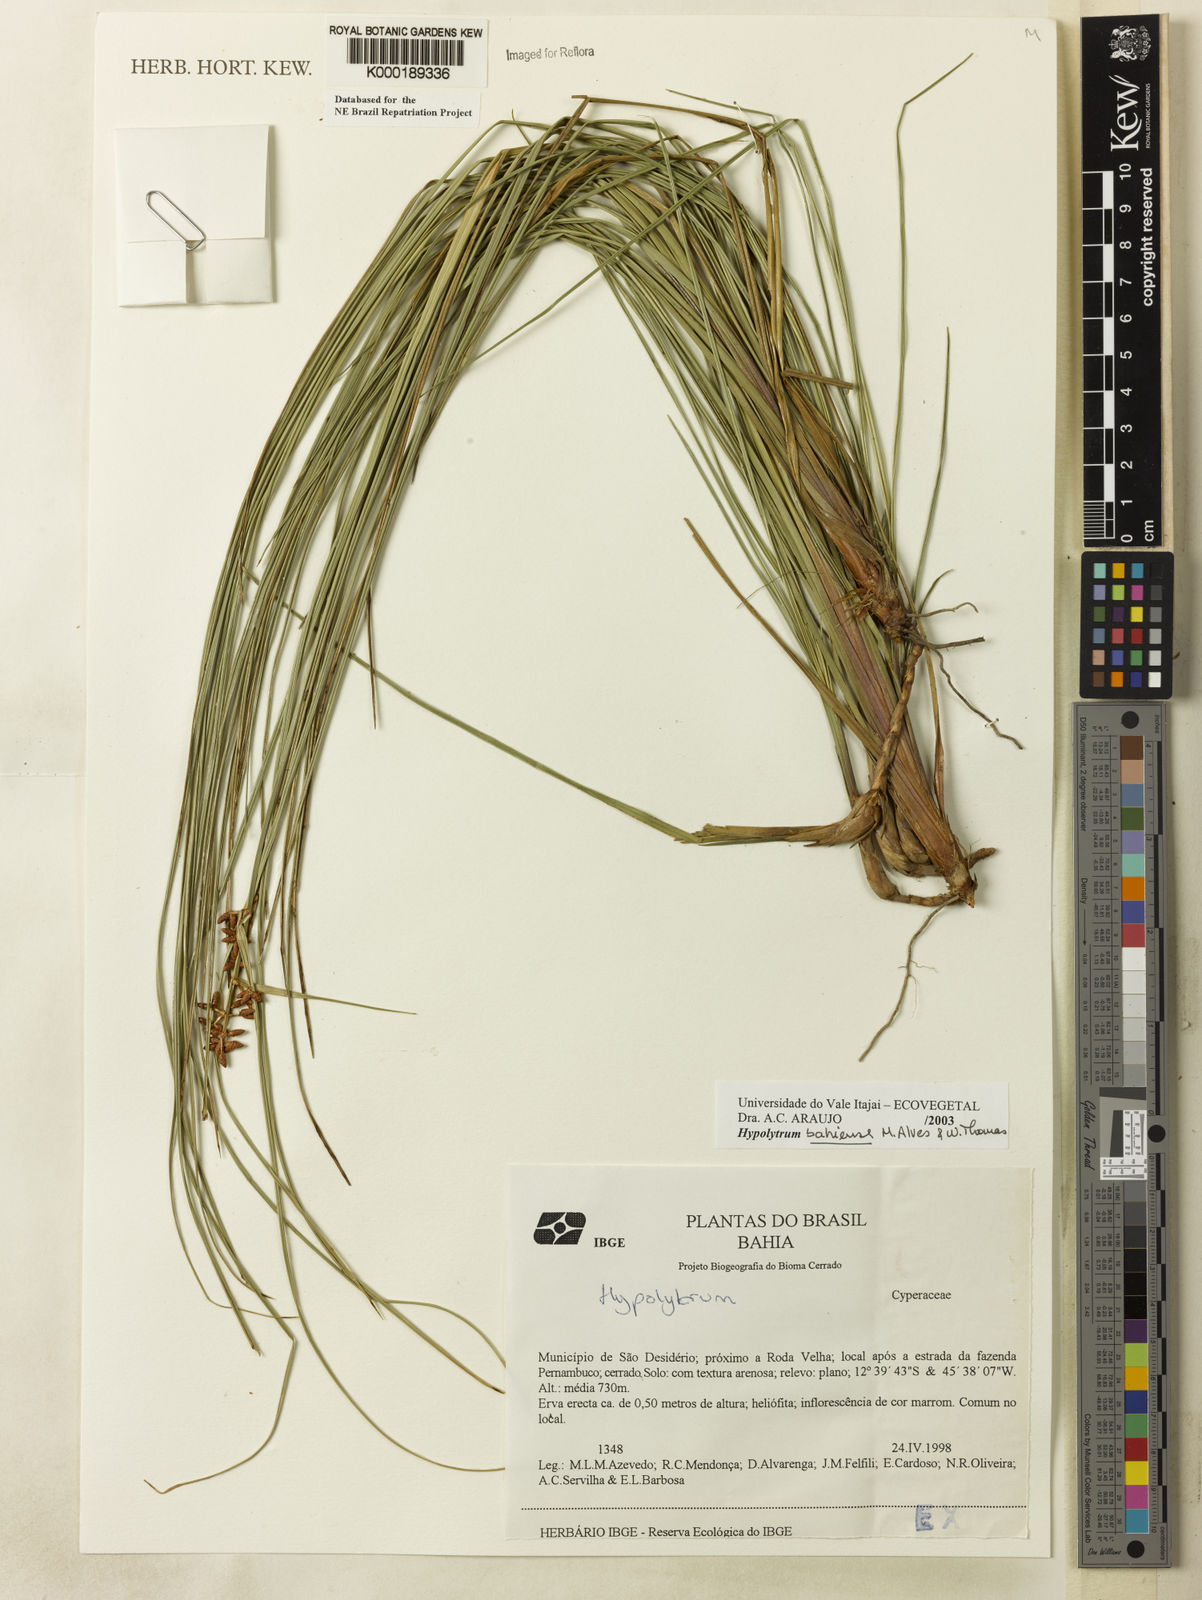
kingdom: Plantae
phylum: Tracheophyta
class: Liliopsida
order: Poales
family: Cyperaceae
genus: Hypolytrum
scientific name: Hypolytrum bahiense
